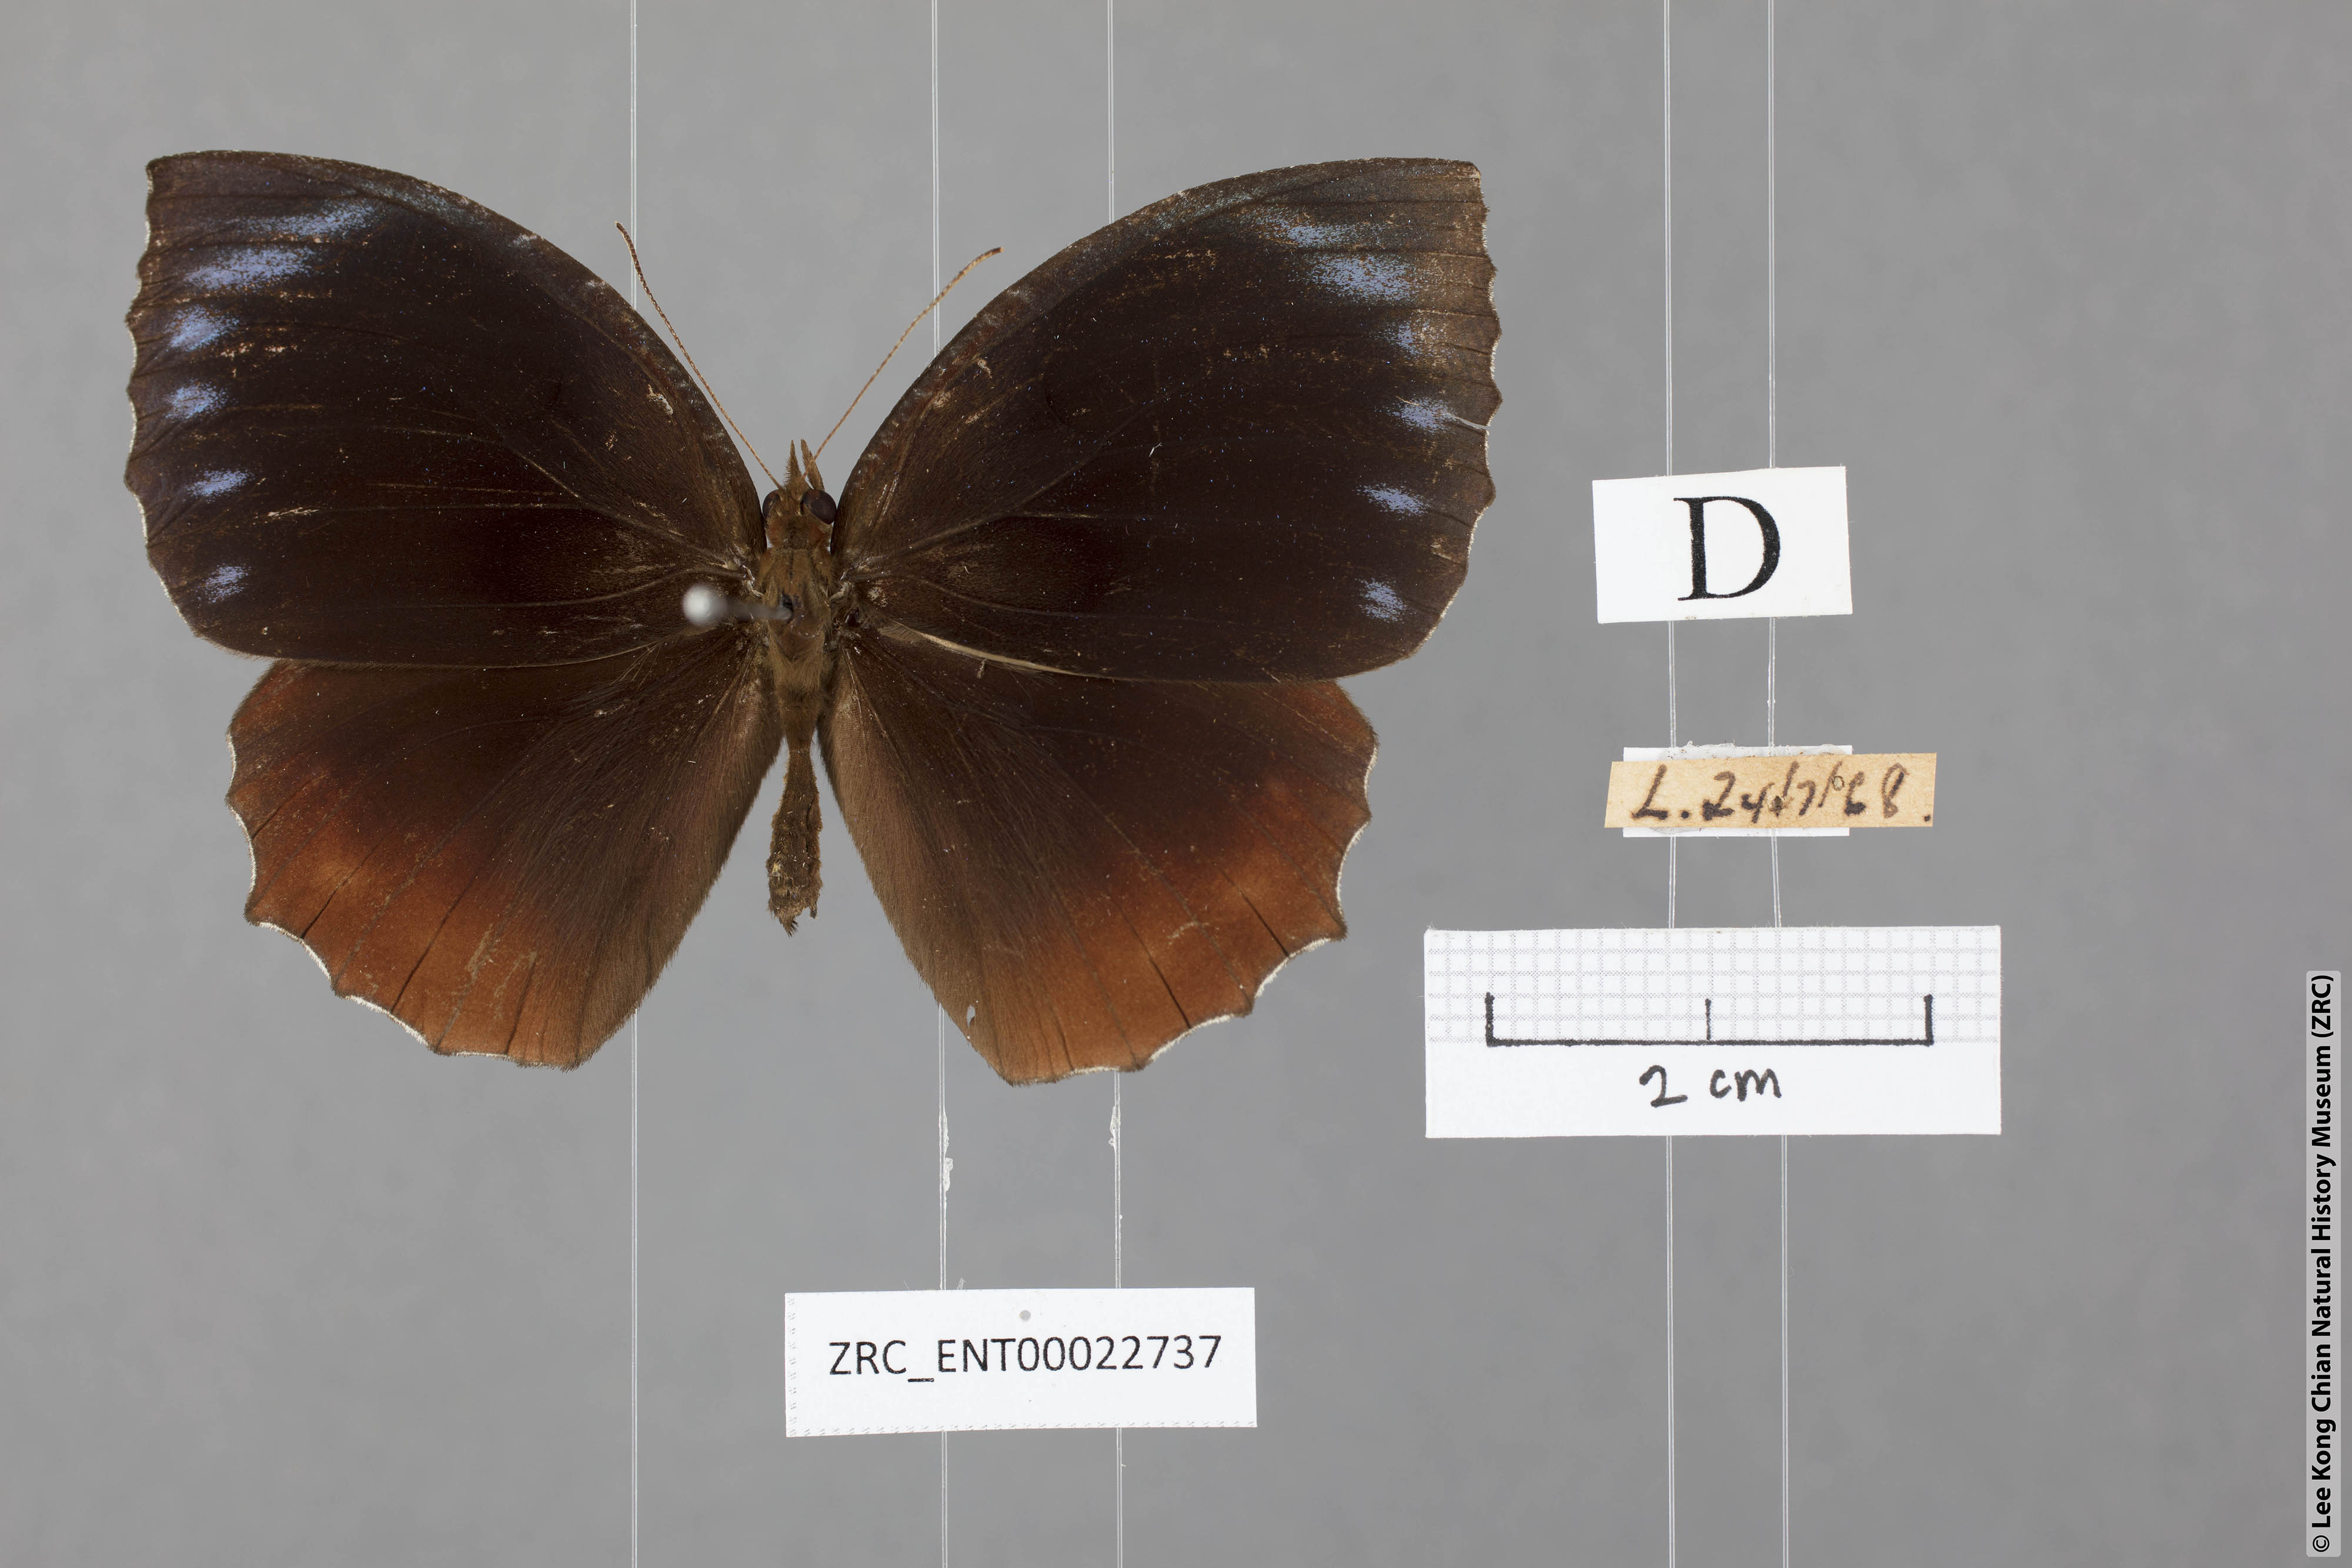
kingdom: Animalia
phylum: Arthropoda
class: Insecta
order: Lepidoptera
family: Nymphalidae
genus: Elymnias
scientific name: Elymnias hypermnestra
